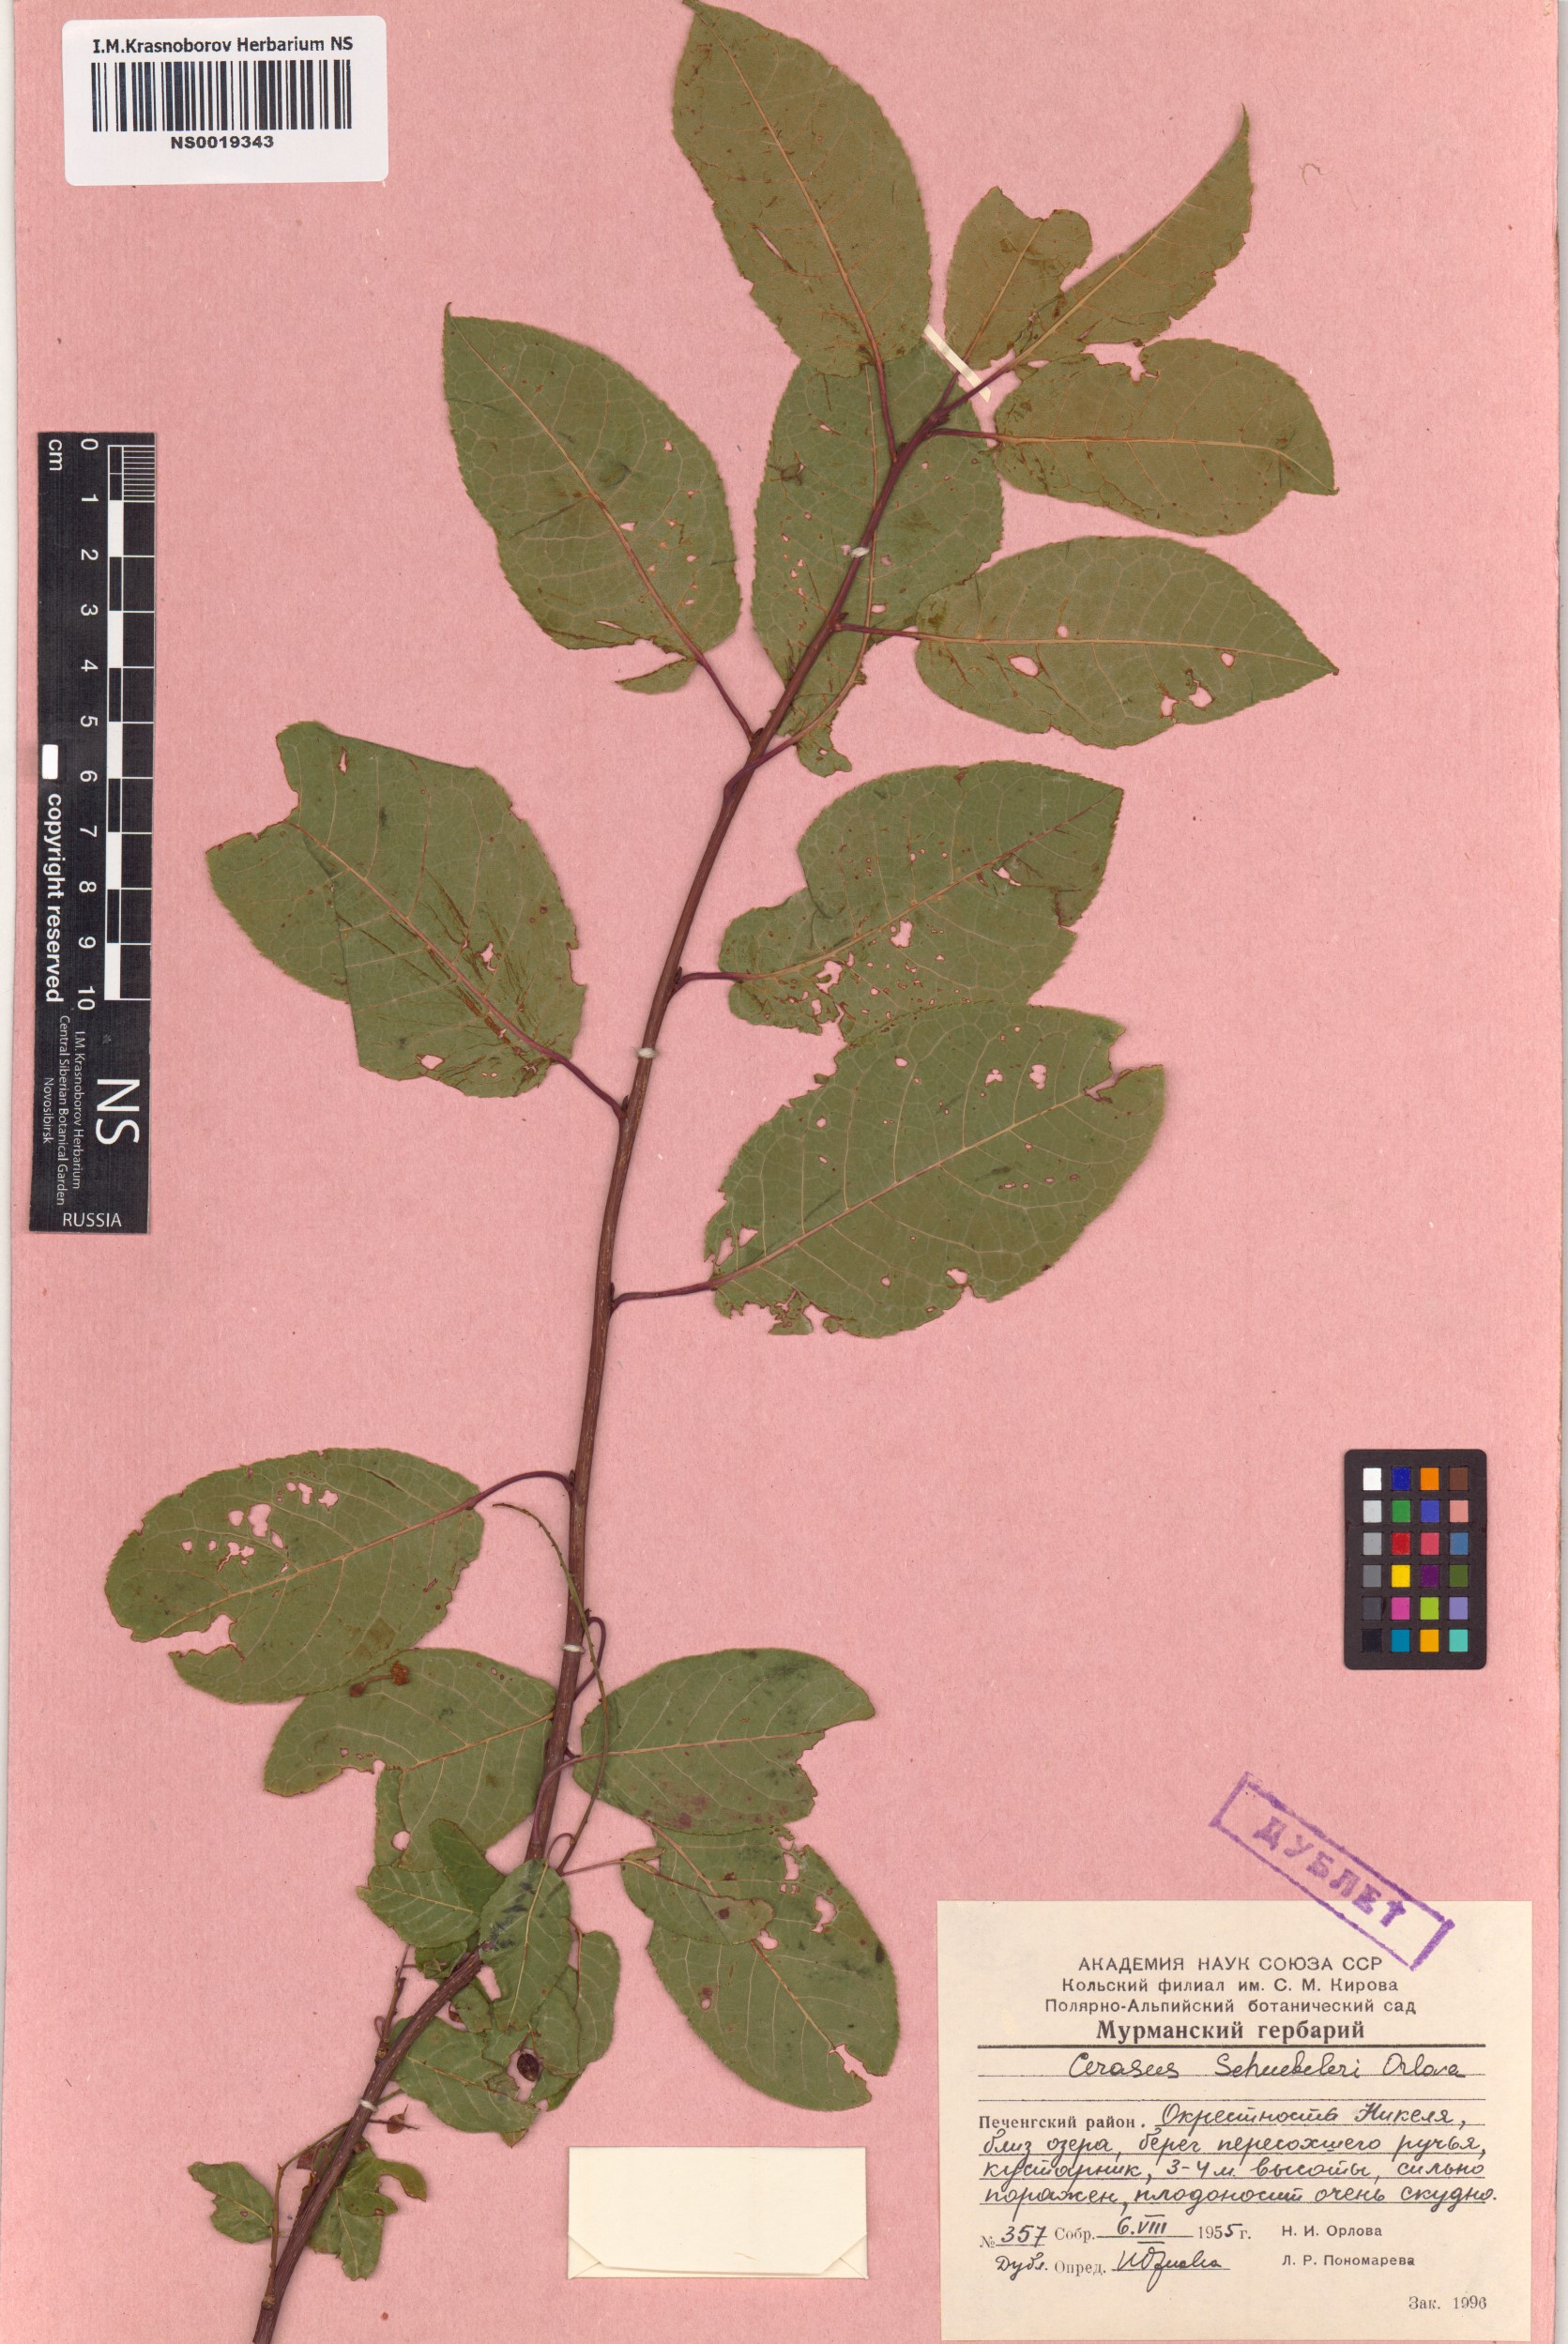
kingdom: Plantae
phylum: Tracheophyta
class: Magnoliopsida
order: Rosales
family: Rosaceae
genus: Prunus
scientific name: Prunus padus
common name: Bird cherry
